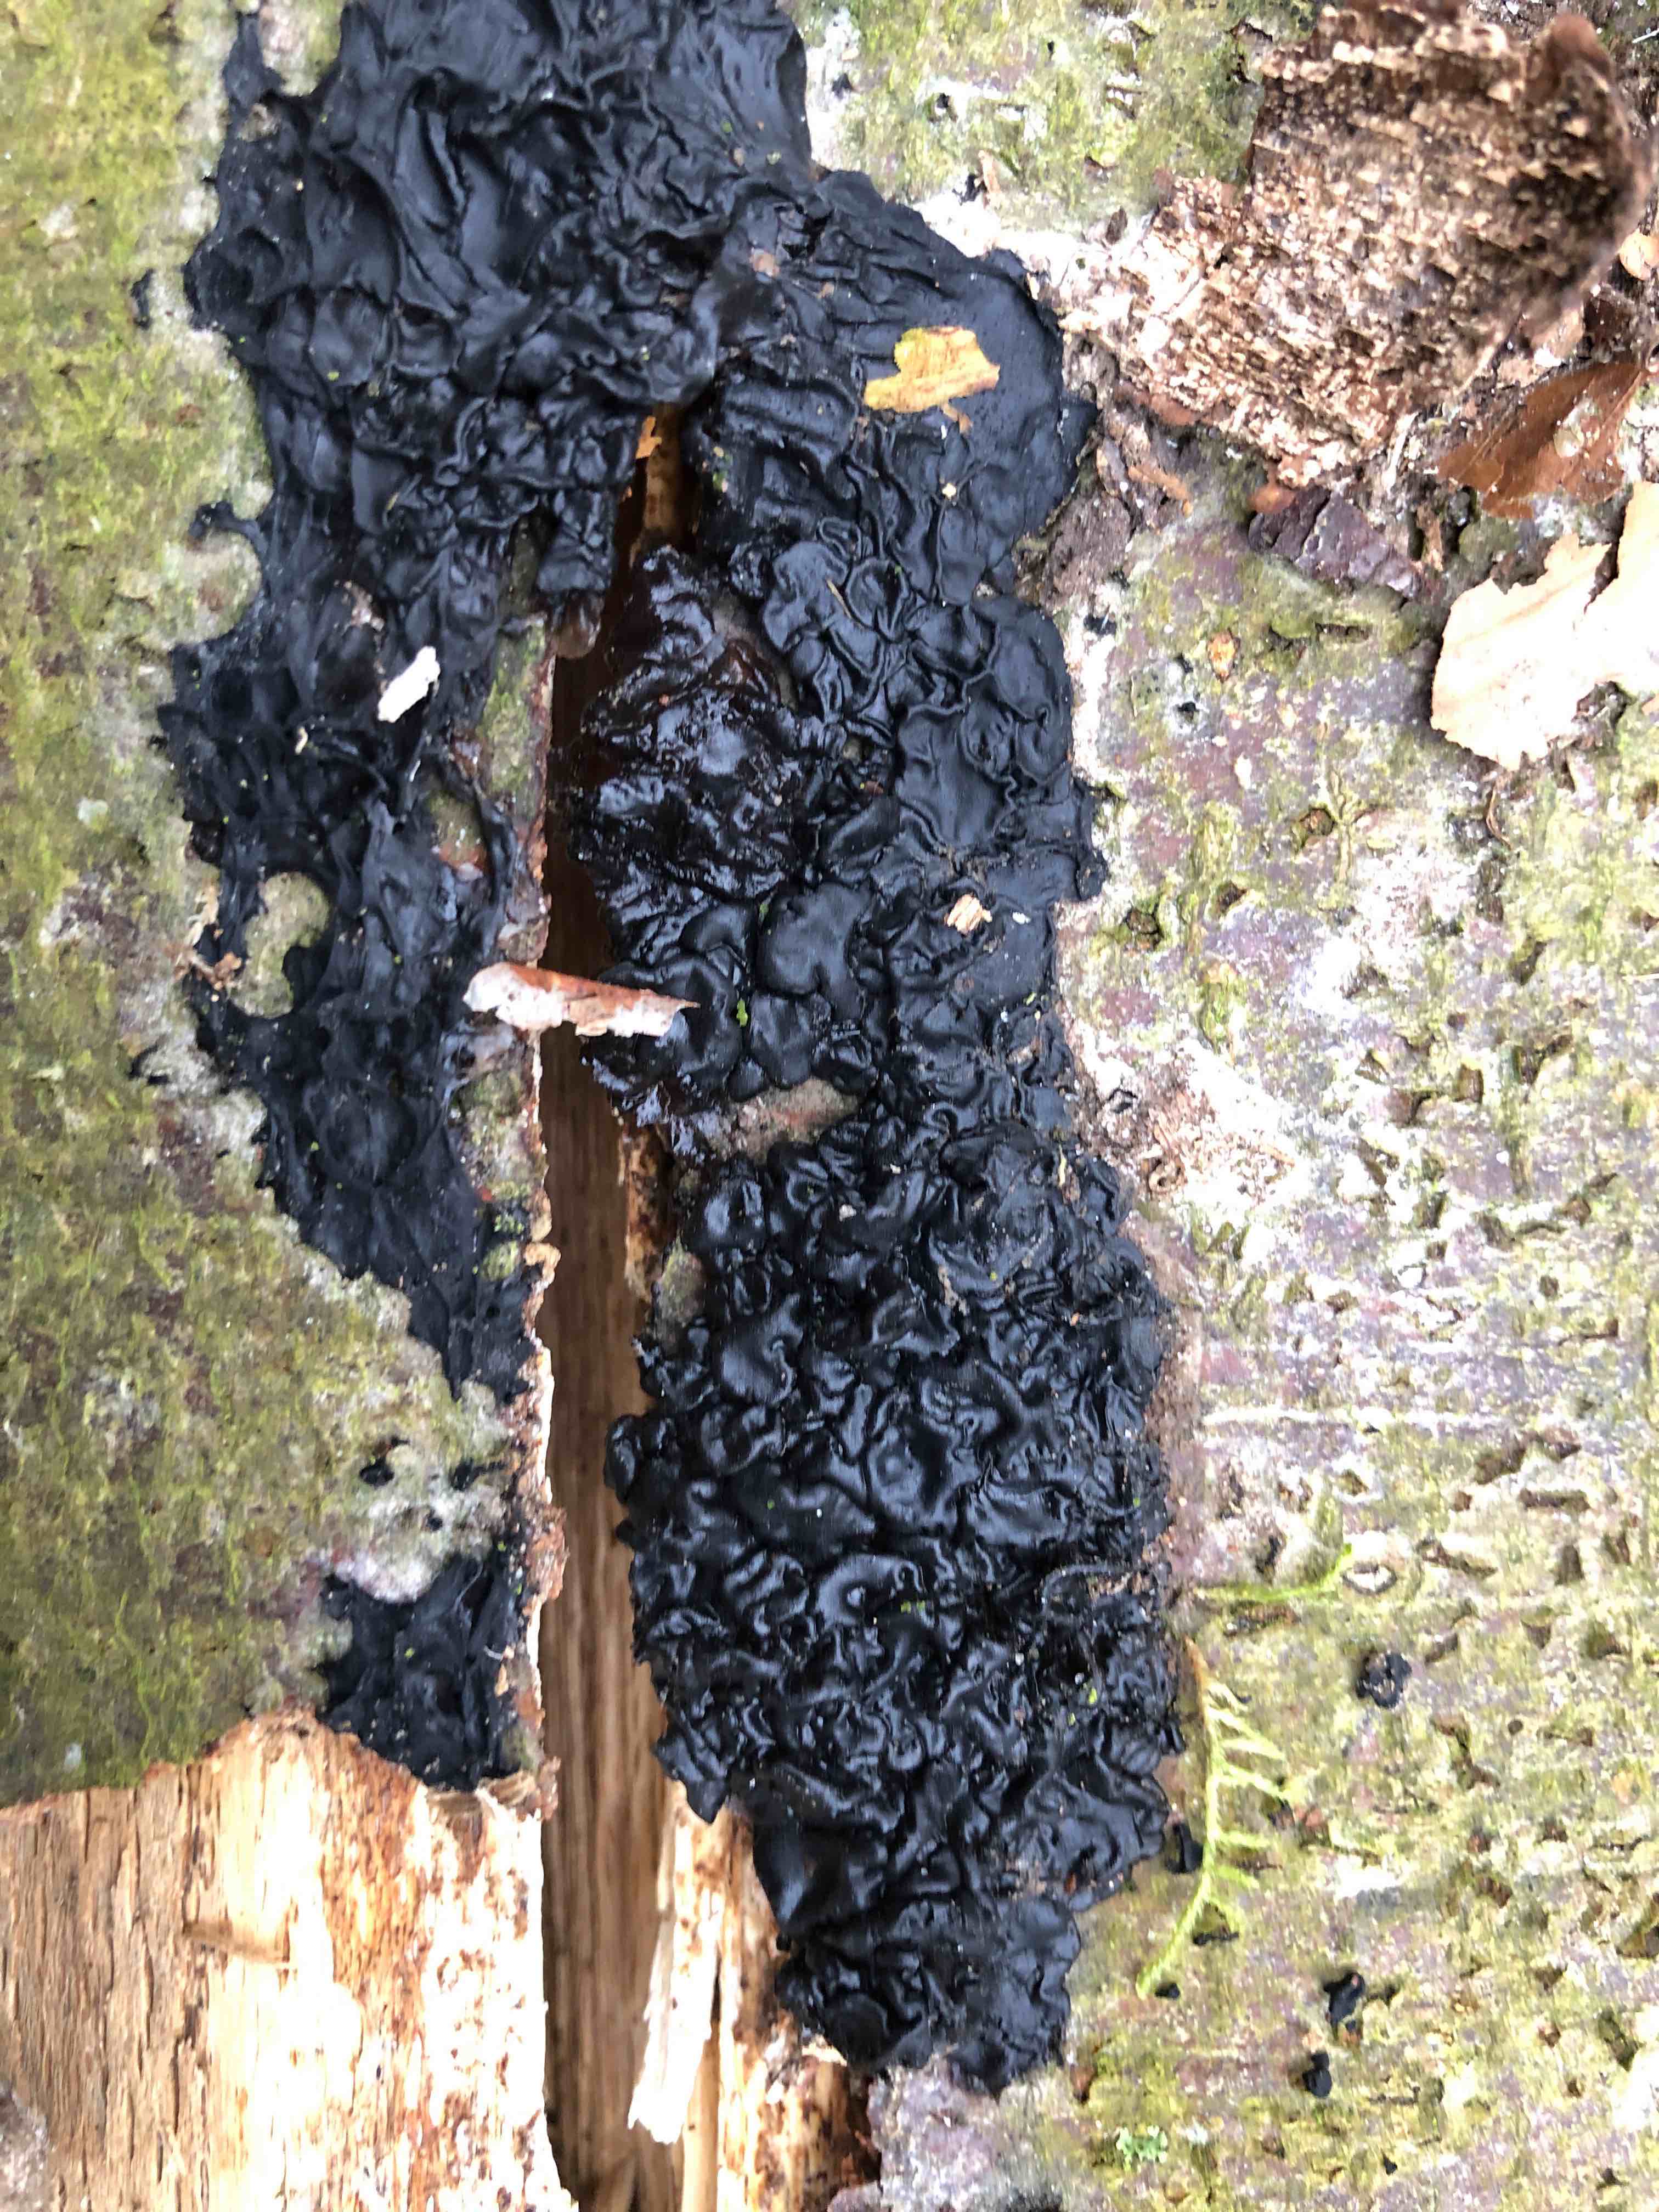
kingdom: Fungi
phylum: Basidiomycota
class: Agaricomycetes
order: Auriculariales
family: Auriculariaceae
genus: Exidia
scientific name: Exidia nigricans
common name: almindelig bævretop
